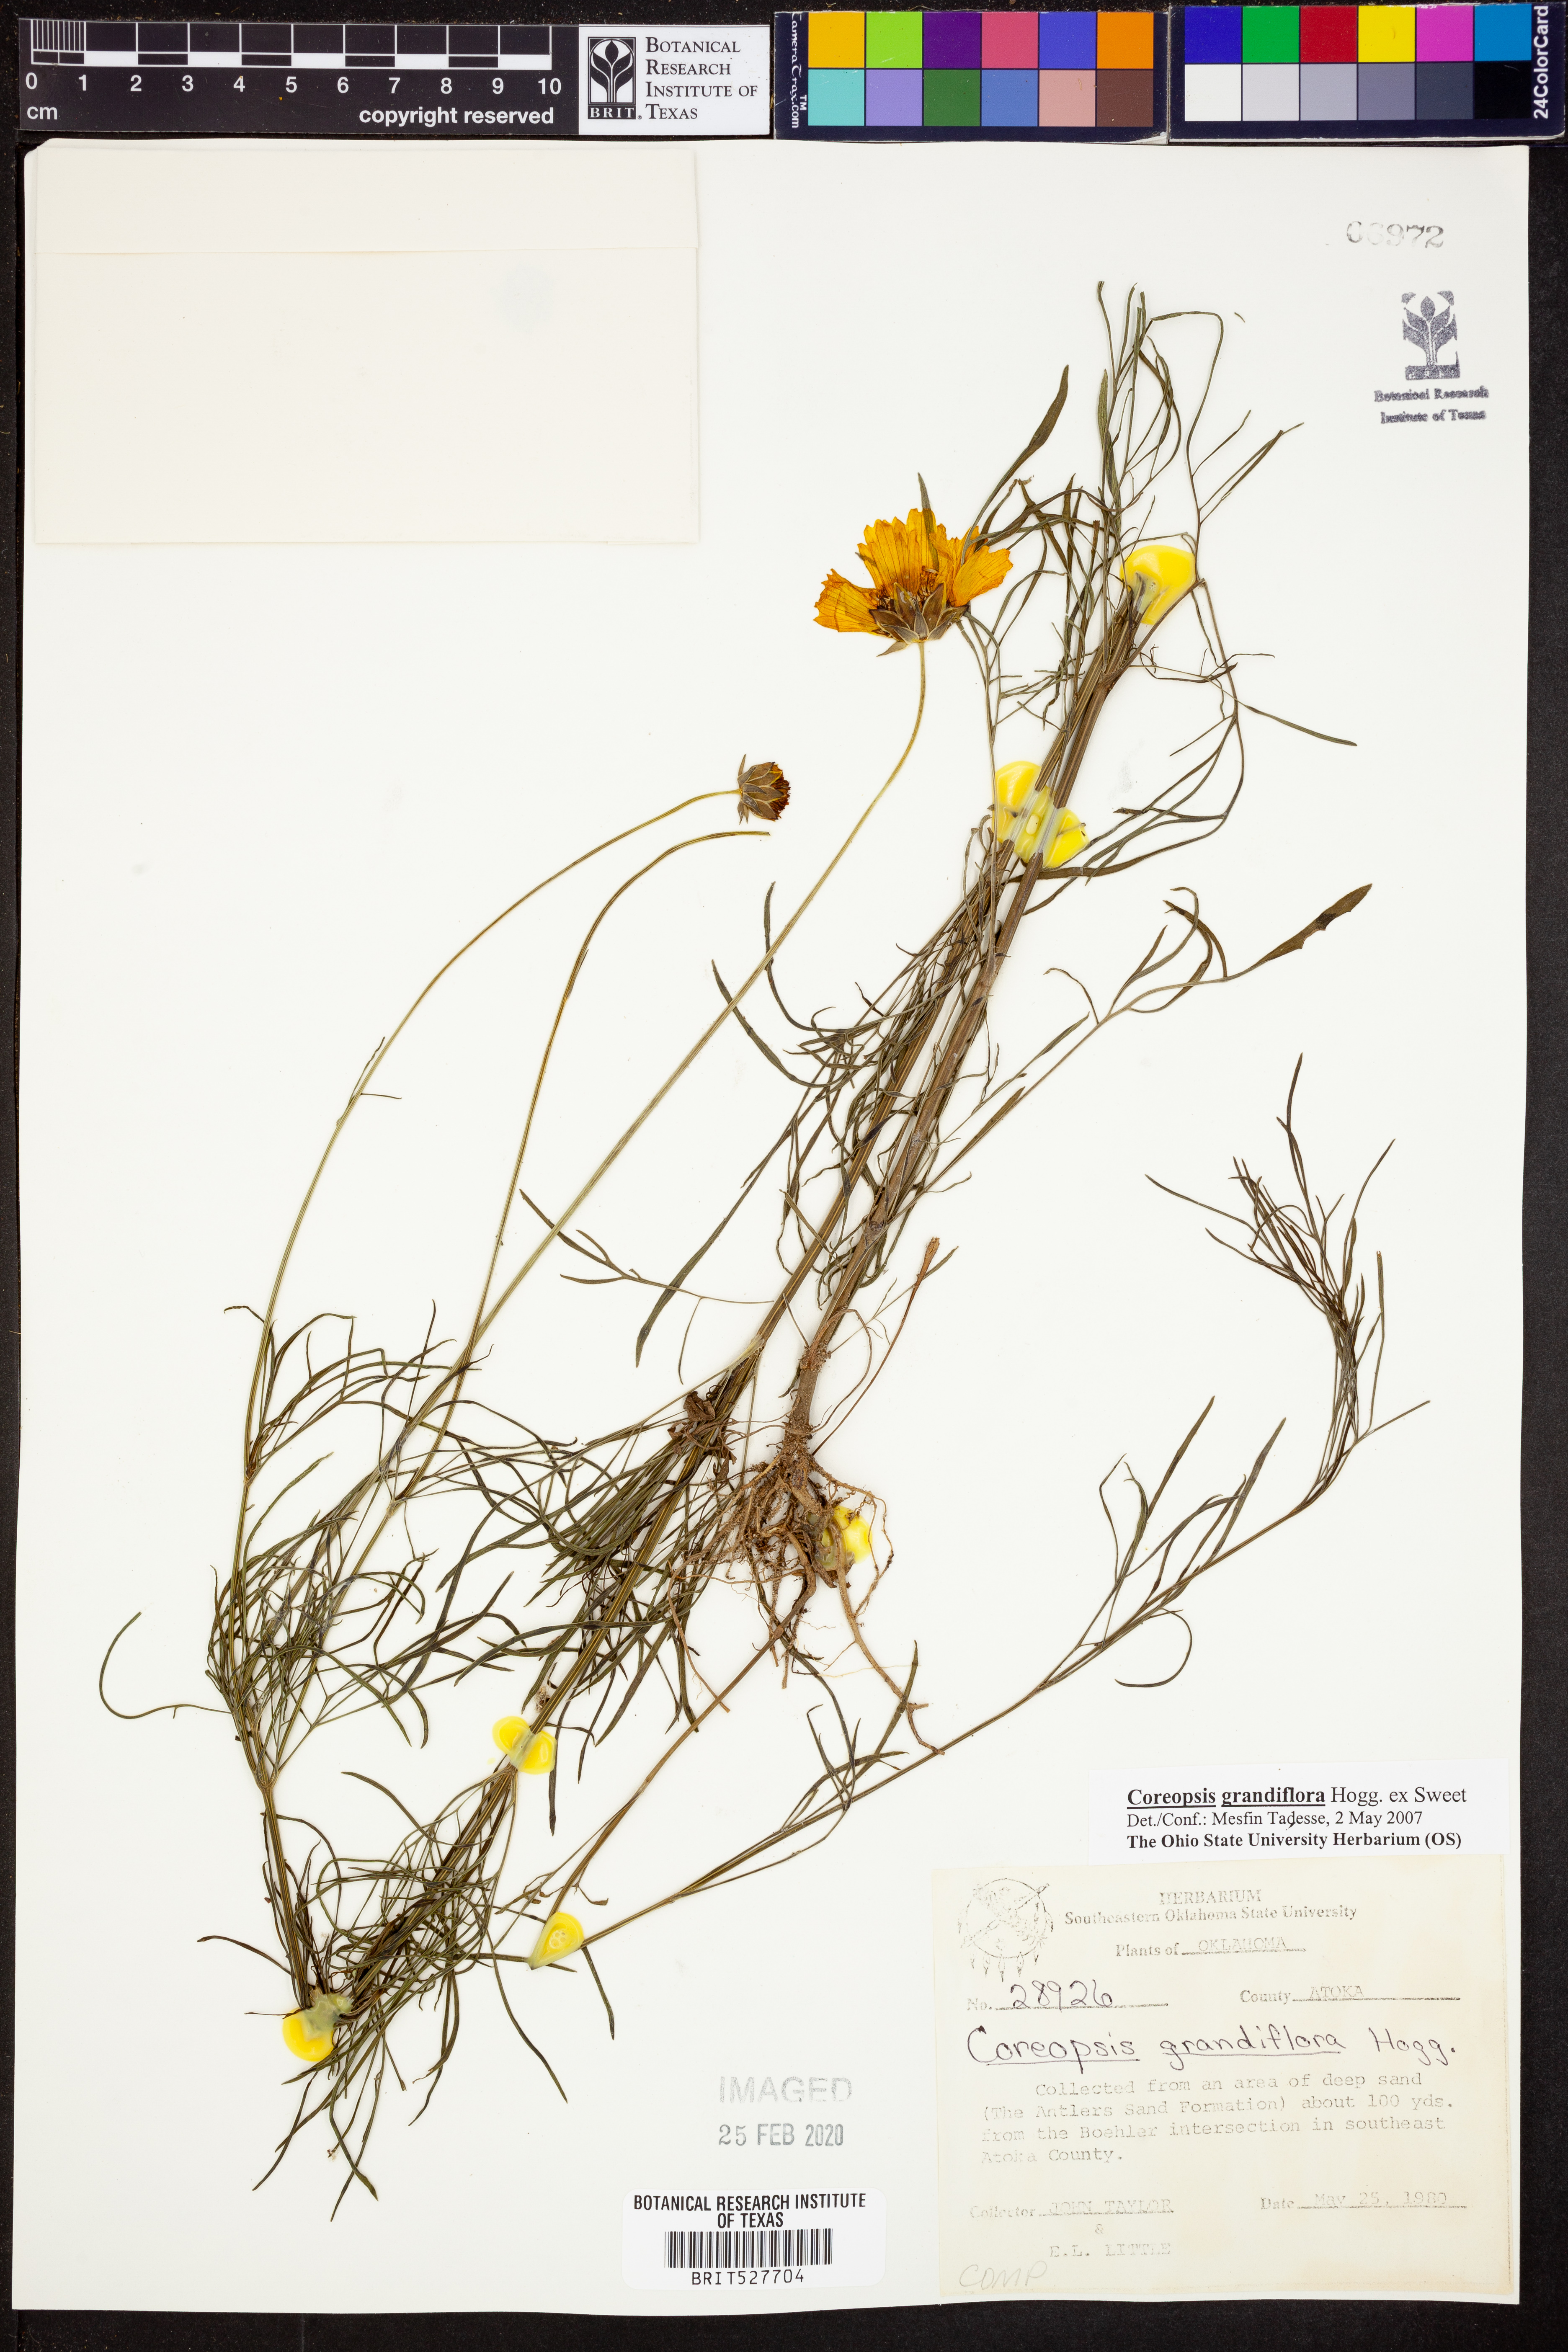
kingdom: Plantae
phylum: Tracheophyta
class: Magnoliopsida
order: Asterales
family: Asteraceae
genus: Coreopsis
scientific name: Coreopsis grandiflora
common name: Large-flowered tickseed
